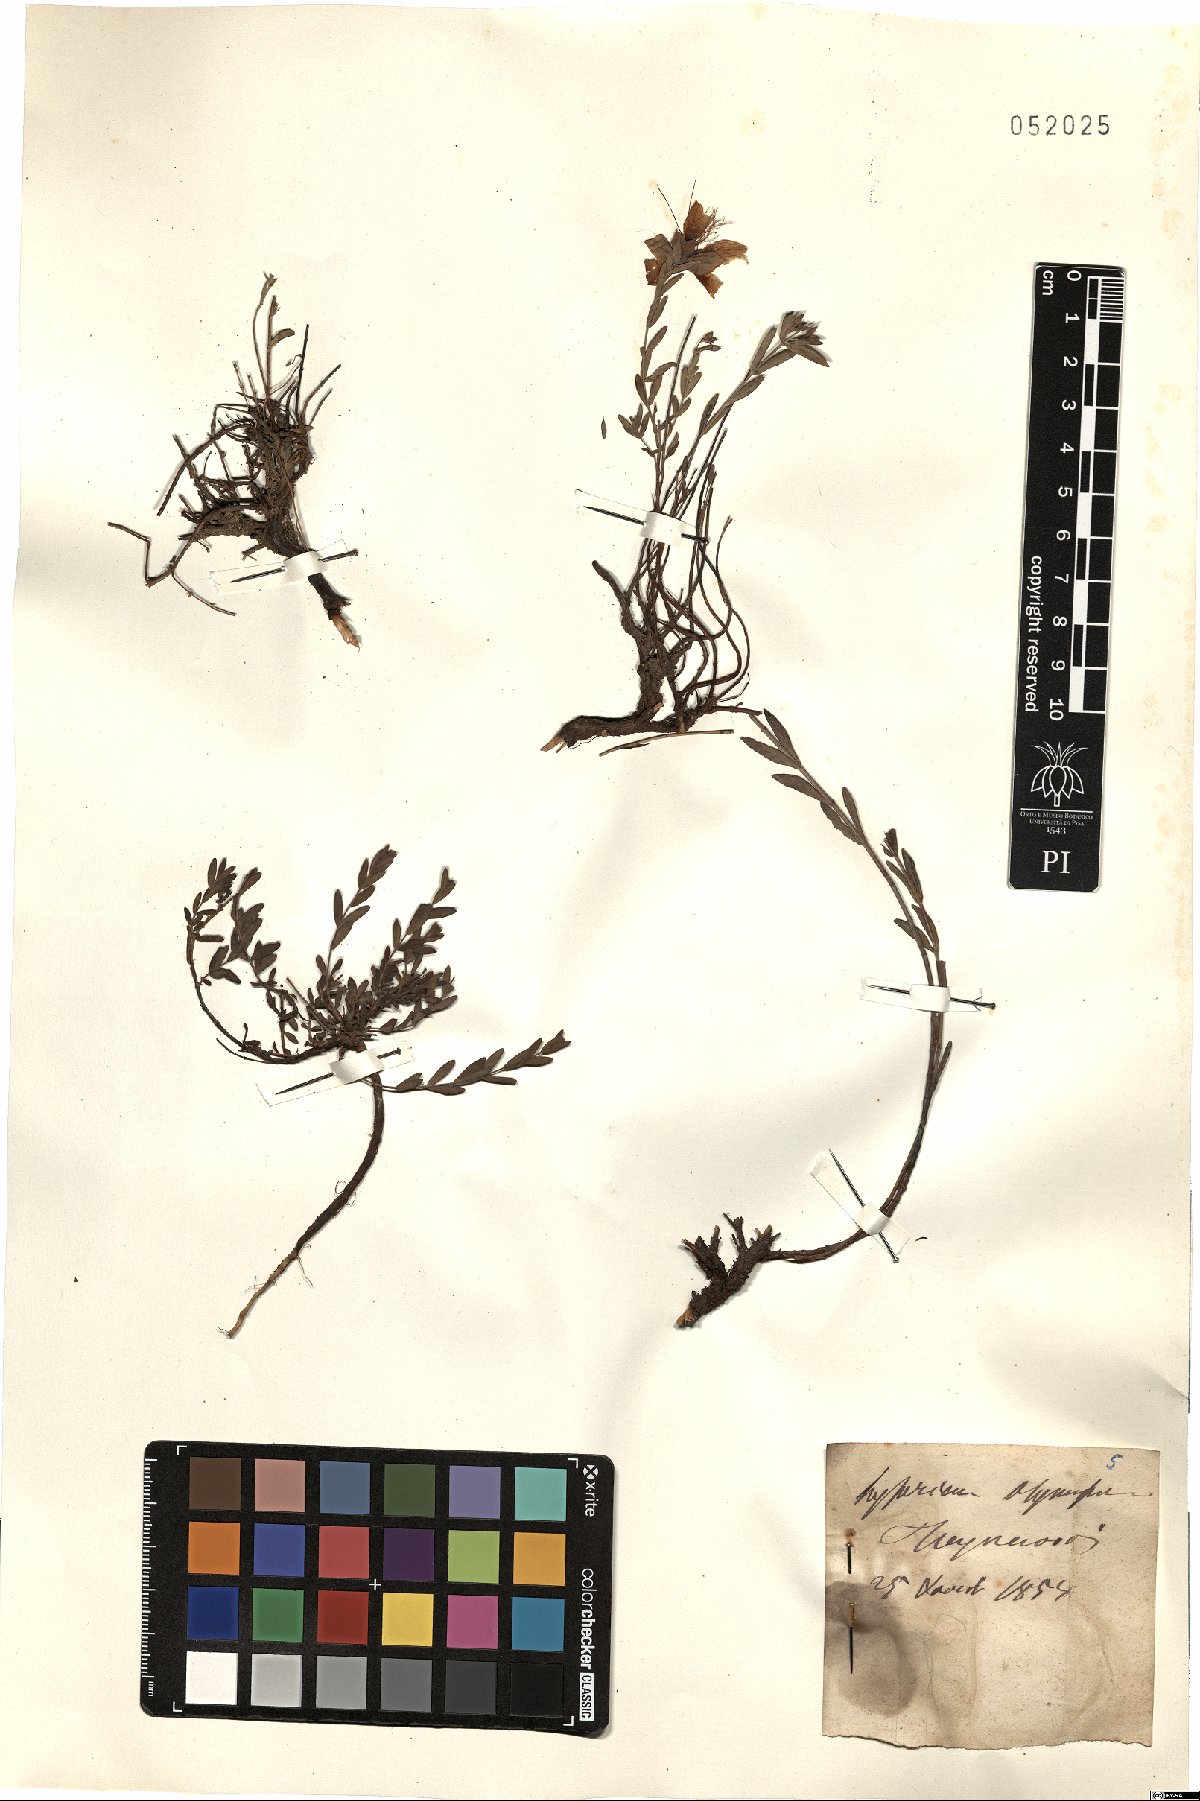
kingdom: Plantae
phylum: Tracheophyta
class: Magnoliopsida
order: Malpighiales
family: Hypericaceae
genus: Hypericum
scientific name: Hypericum olympicum
